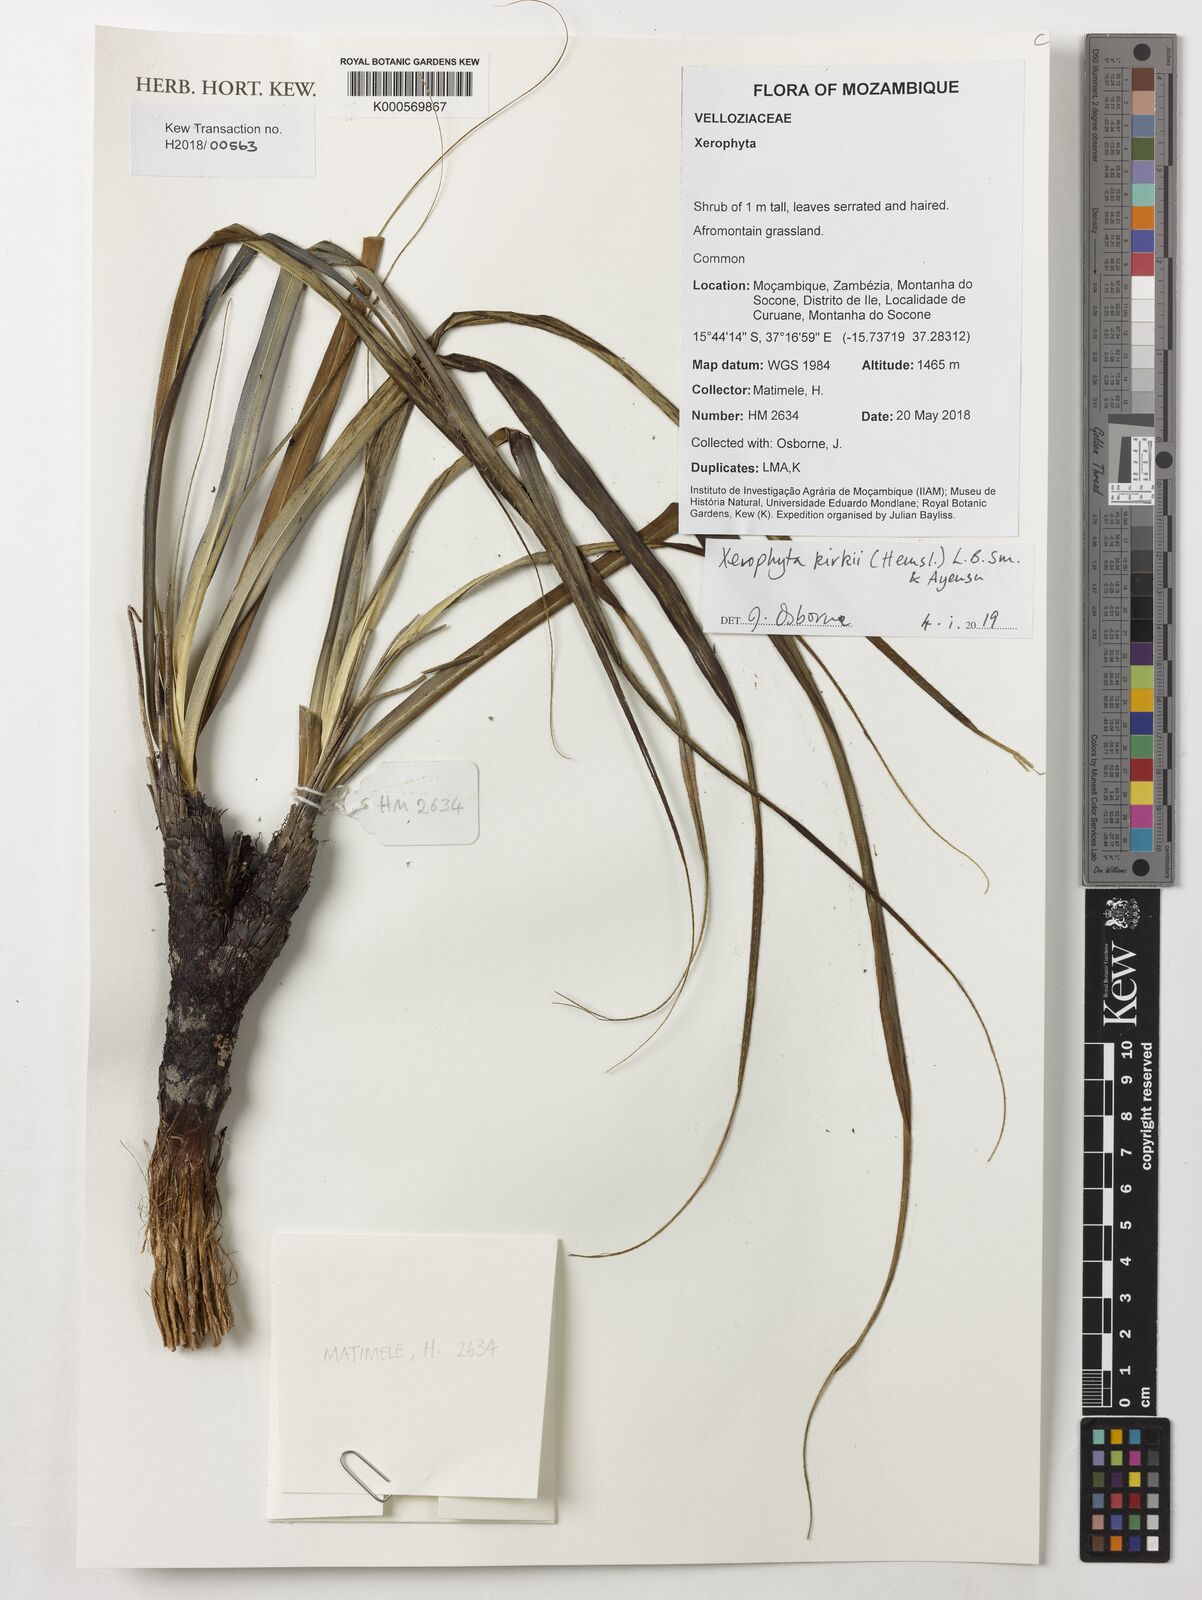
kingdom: Plantae
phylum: Tracheophyta
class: Liliopsida
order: Pandanales
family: Velloziaceae
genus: Xerophyta
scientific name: Xerophyta kirkii
